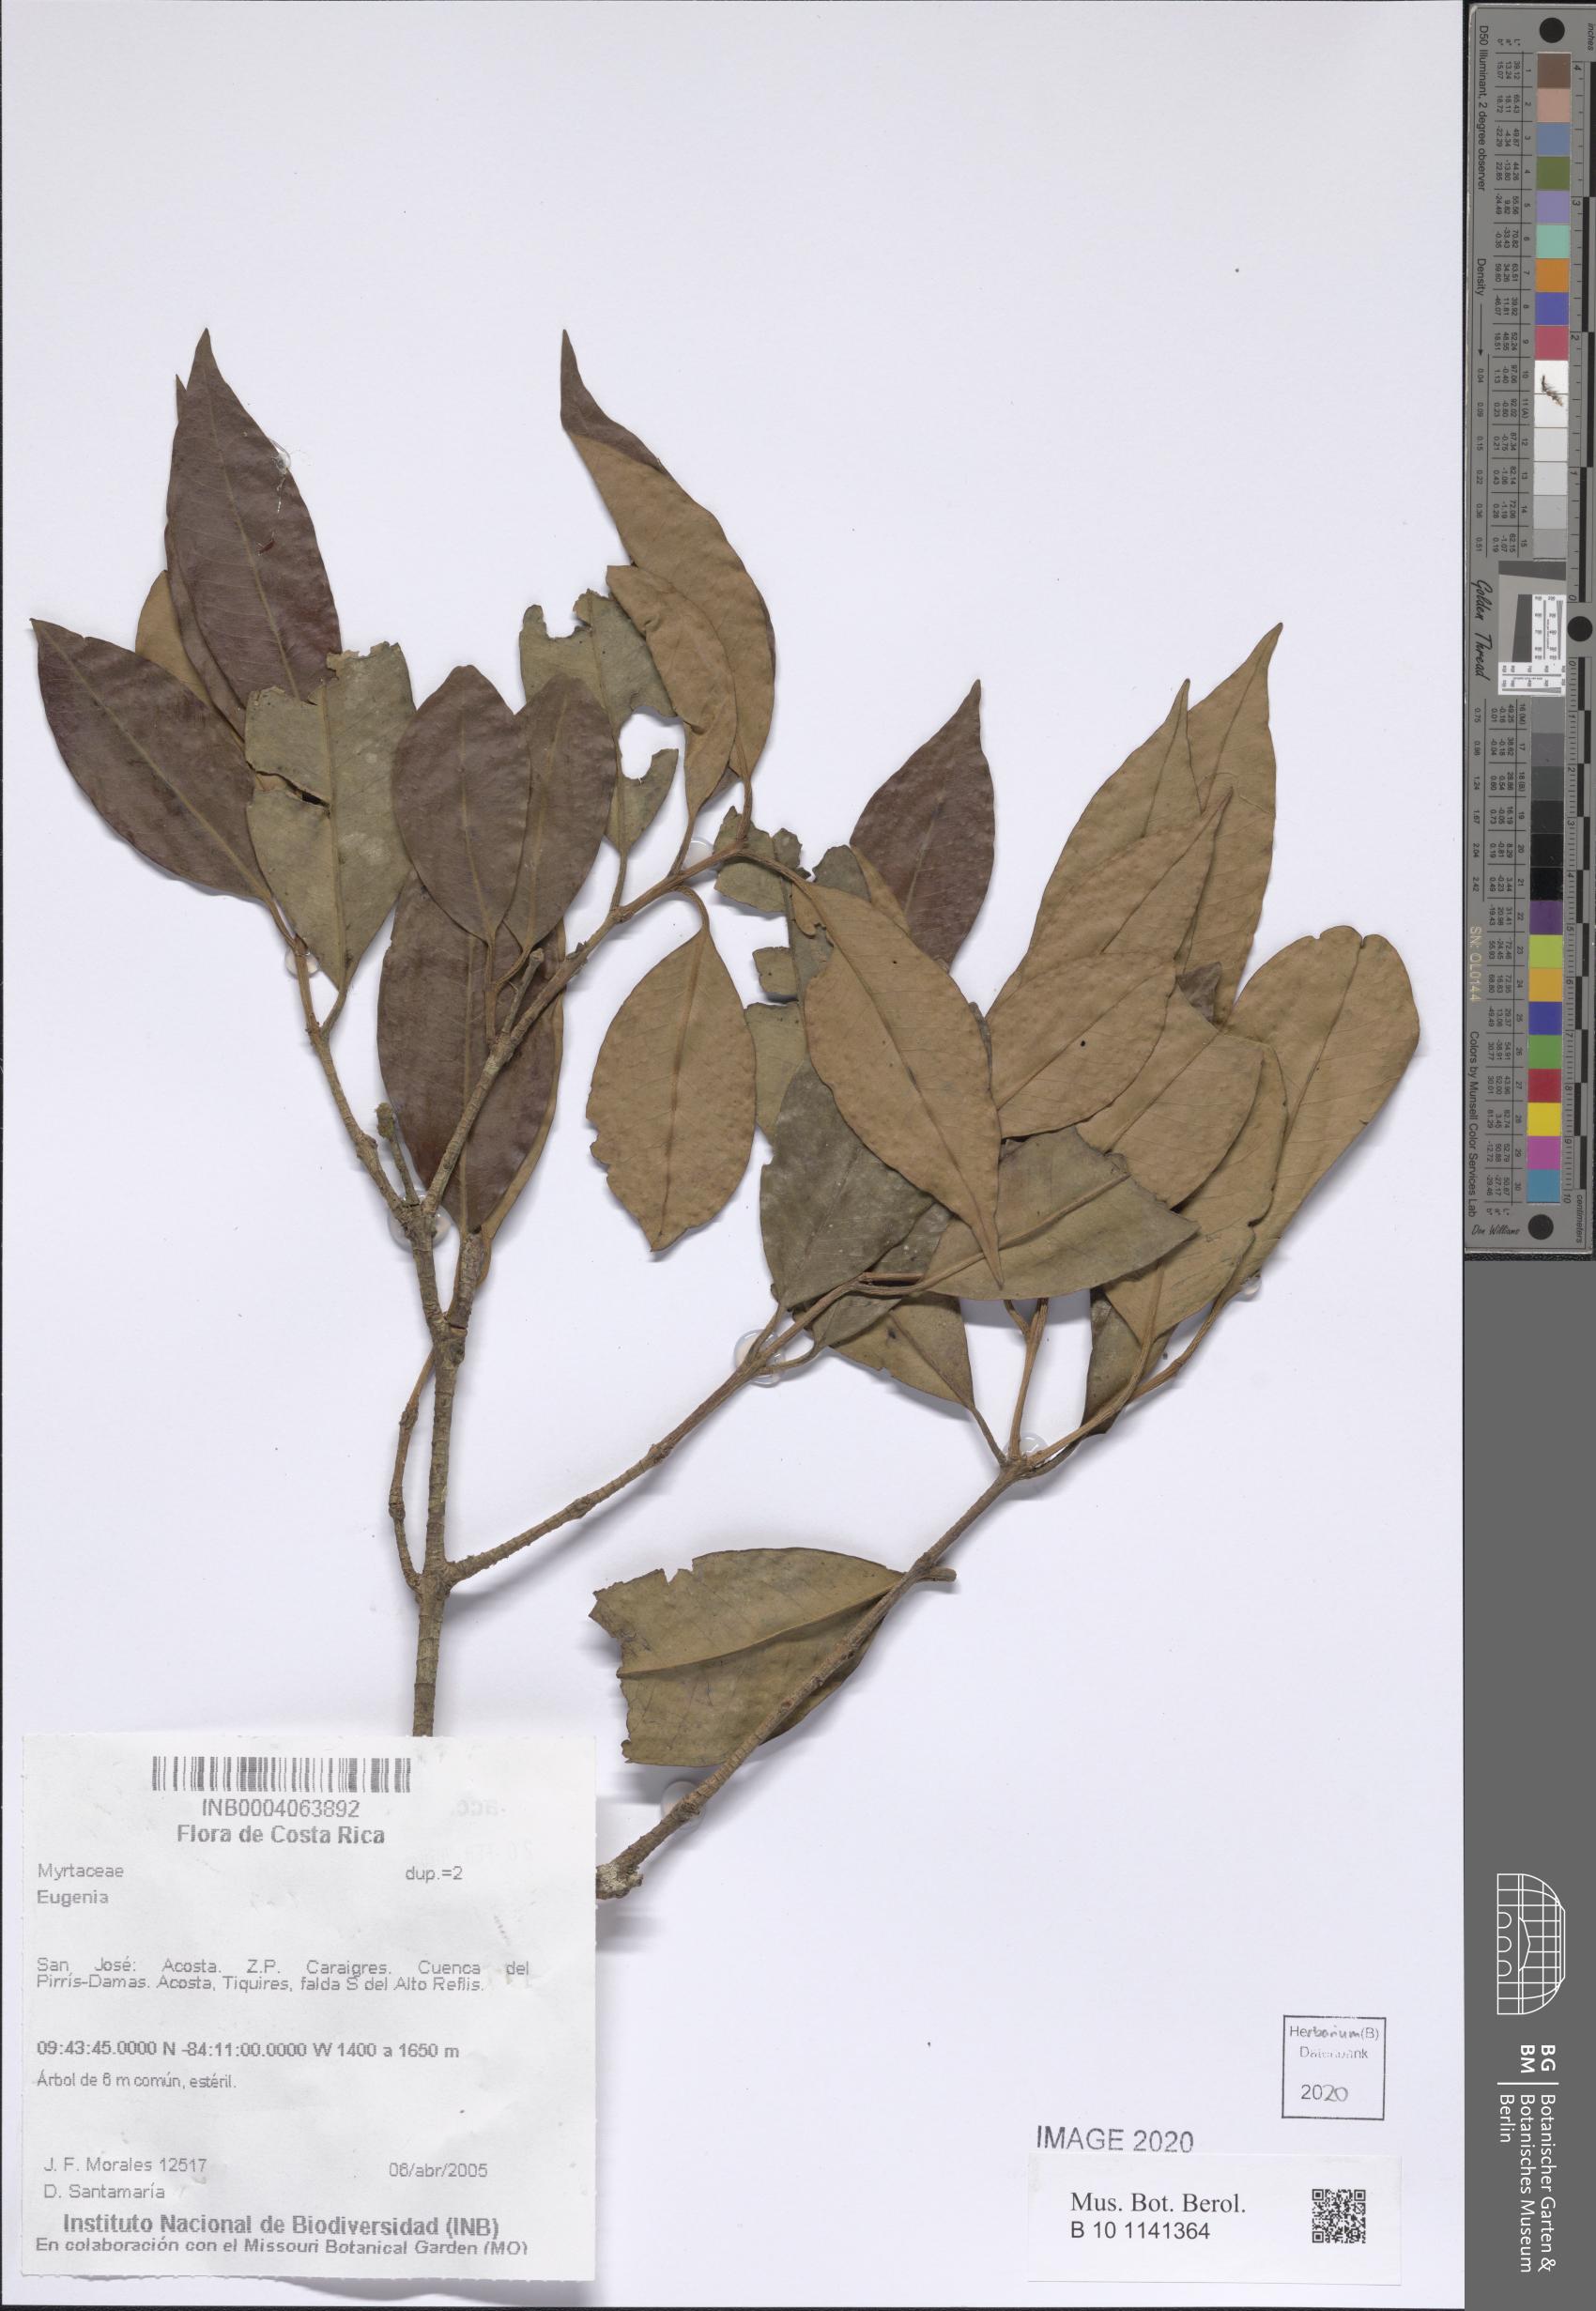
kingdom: Plantae
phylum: Tracheophyta
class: Magnoliopsida
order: Myrtales
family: Myrtaceae
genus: Eugenia
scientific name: Eugenia
